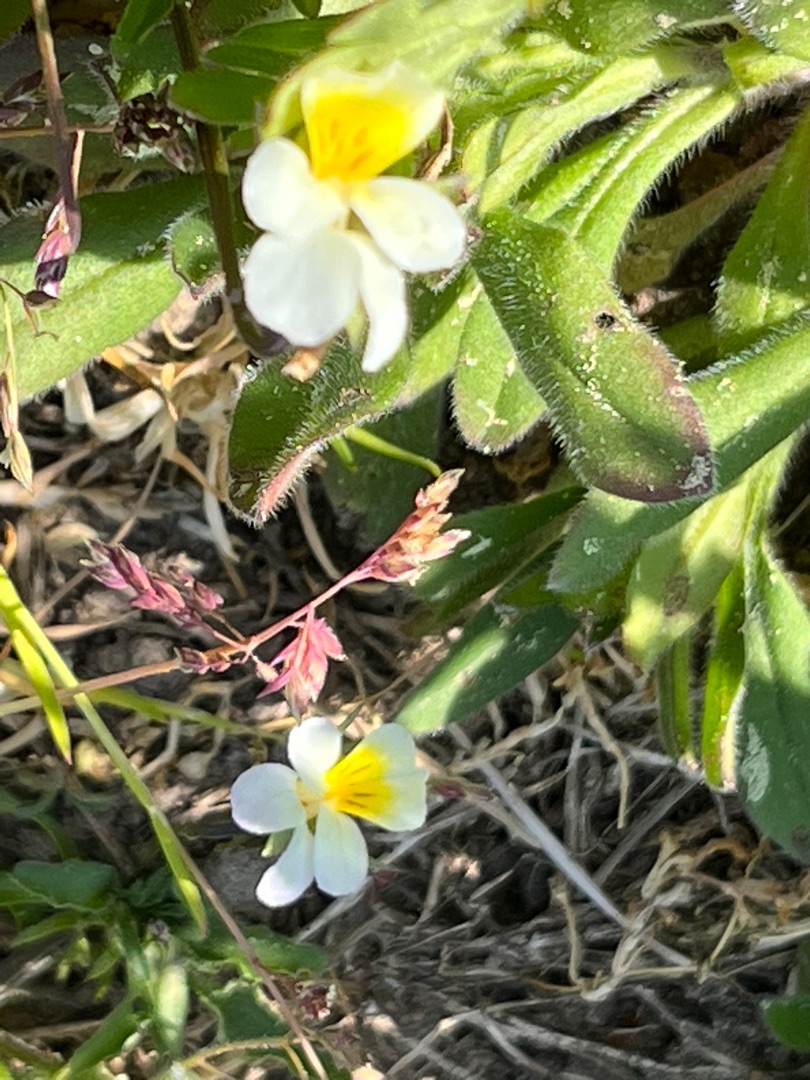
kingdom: Plantae
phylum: Tracheophyta
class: Magnoliopsida
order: Malpighiales
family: Violaceae
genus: Viola
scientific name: Viola arvensis
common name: Ager-stedmoderblomst
